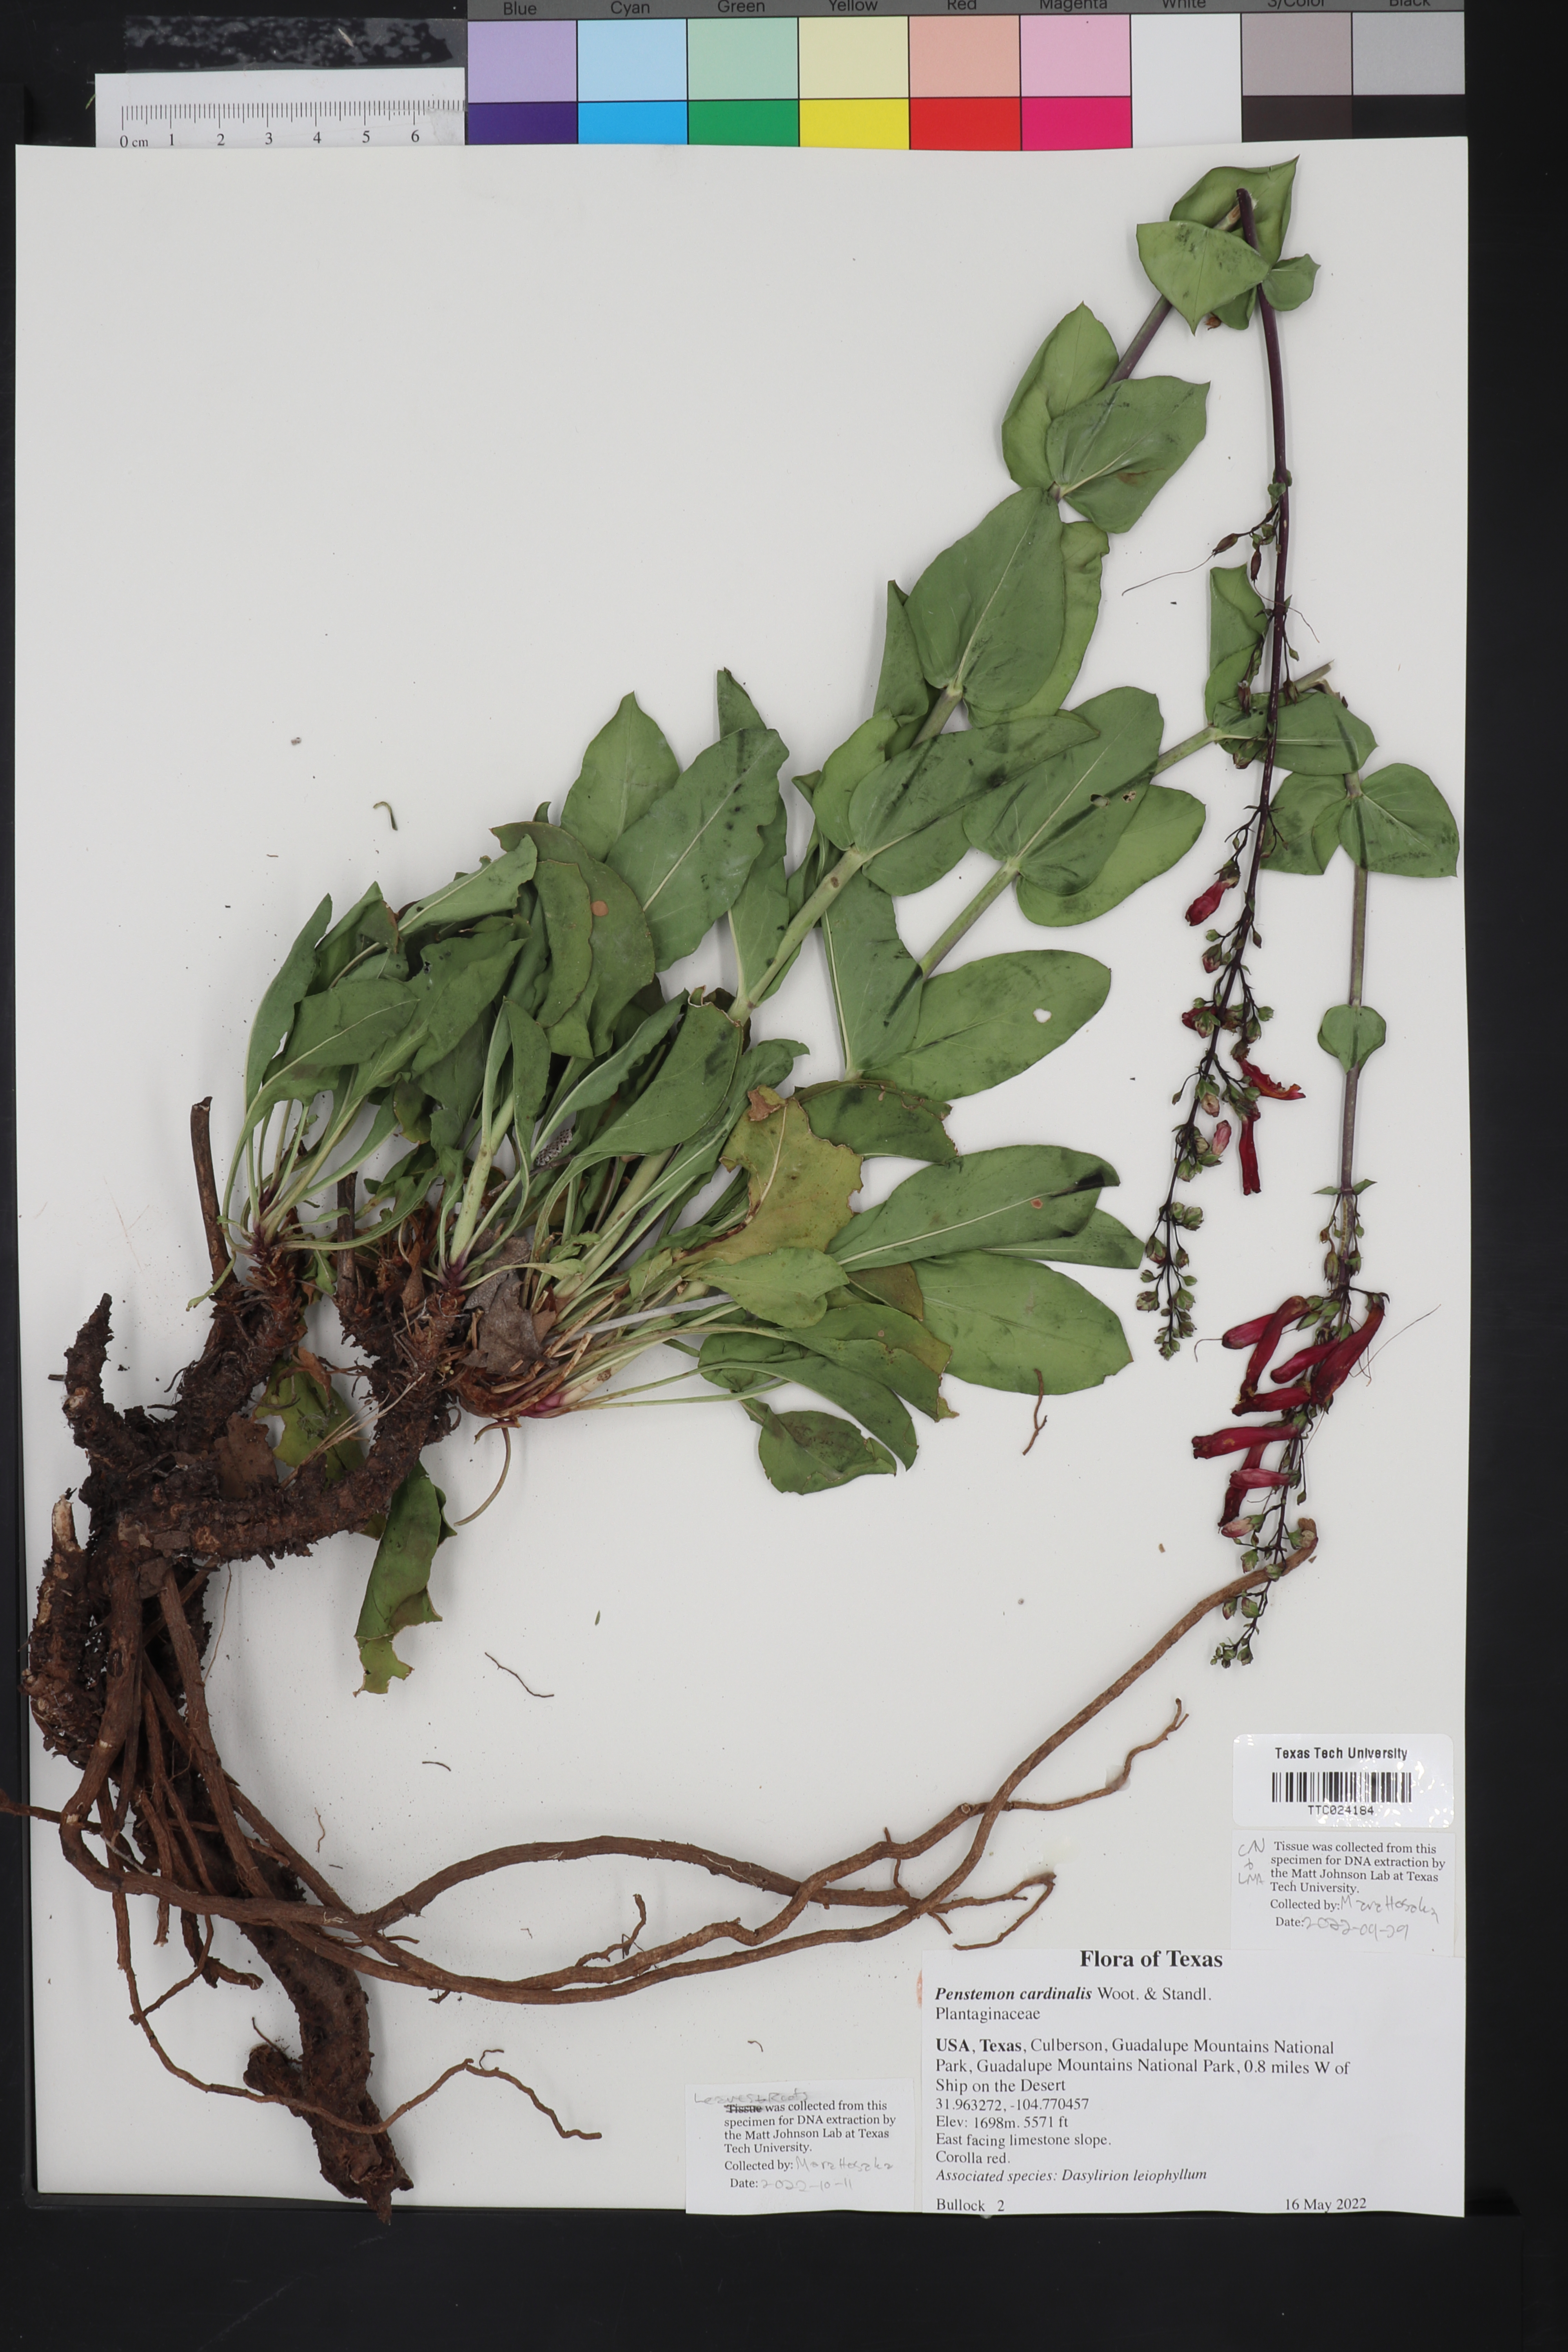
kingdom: Plantae
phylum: Tracheophyta
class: Magnoliopsida
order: Lamiales
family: Plantaginaceae
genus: Penstemon
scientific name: Penstemon cardinalis
